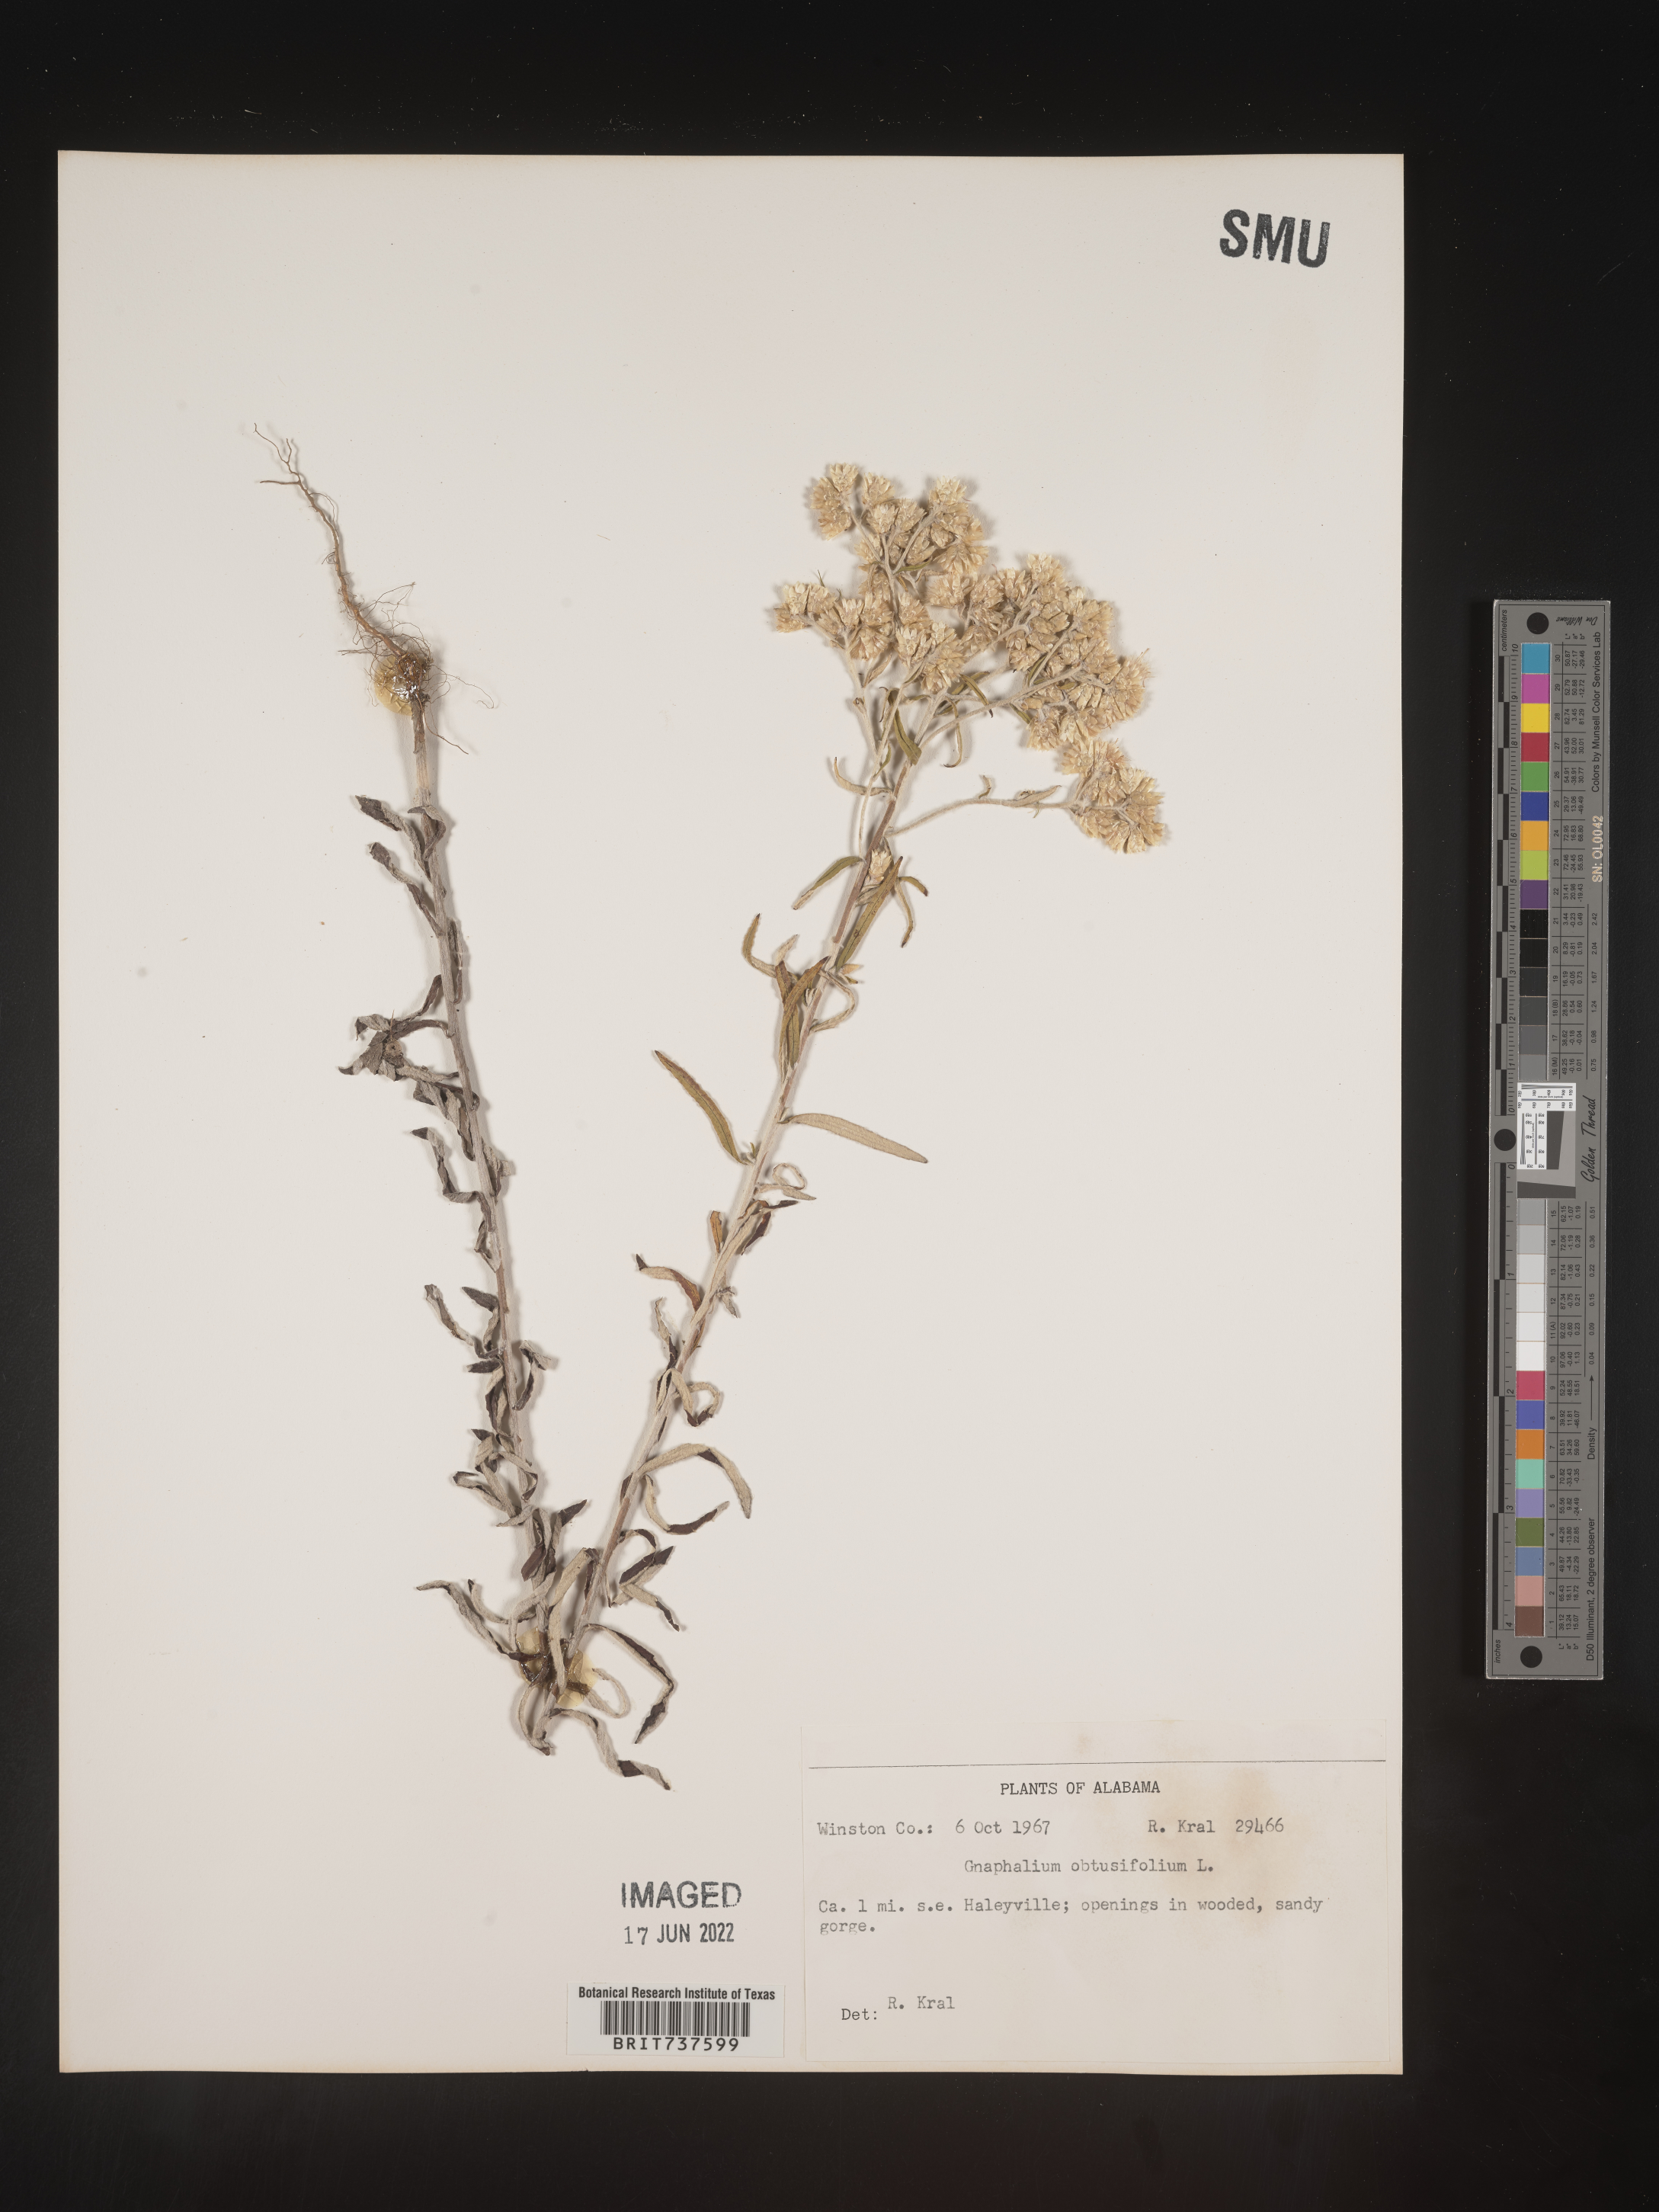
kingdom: Plantae
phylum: Tracheophyta
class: Magnoliopsida
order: Asterales
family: Asteraceae
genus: Pseudognaphalium
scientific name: Pseudognaphalium obtusifolium
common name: Eastern rabbit-tobacco
